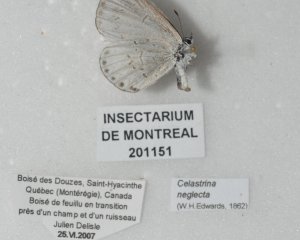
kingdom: Animalia
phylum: Arthropoda
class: Insecta
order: Lepidoptera
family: Lycaenidae
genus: Cyaniris
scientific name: Cyaniris neglecta
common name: Summer Azure
